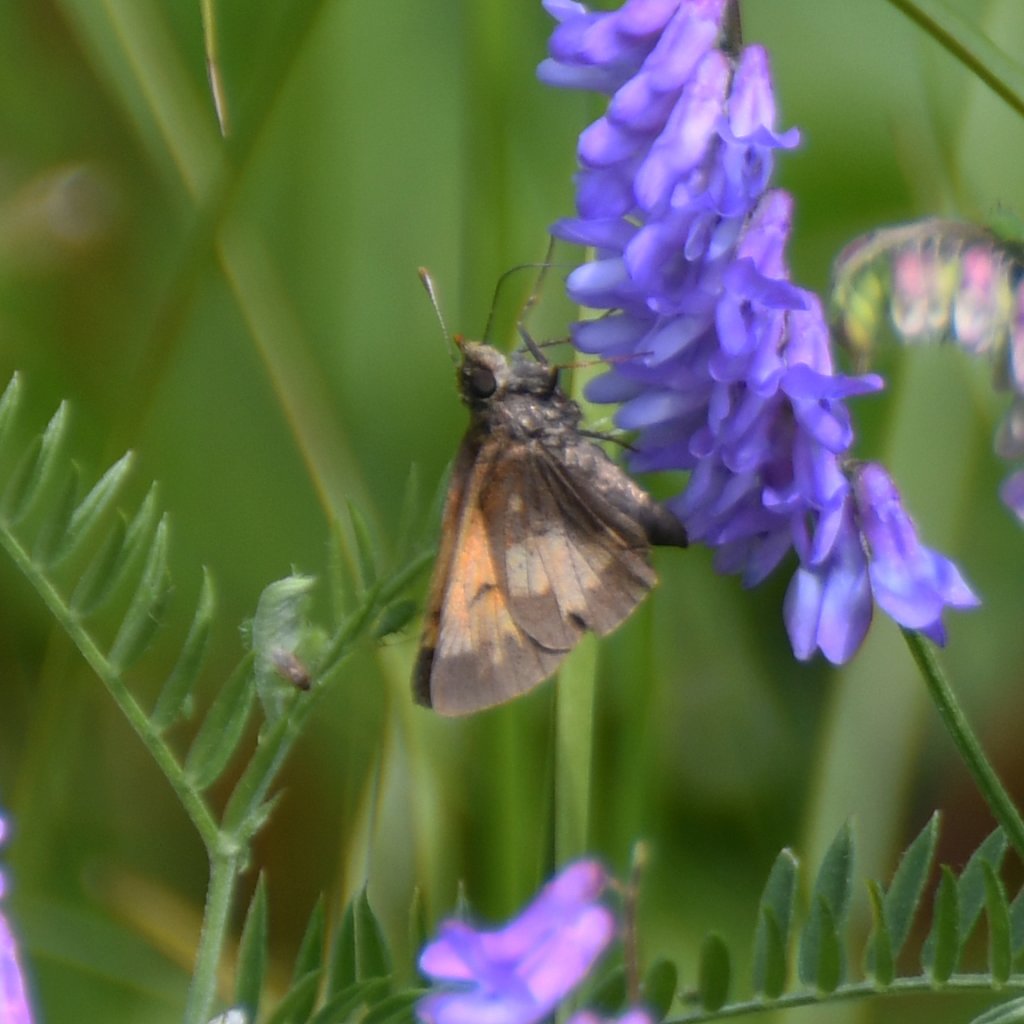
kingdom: Animalia
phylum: Arthropoda
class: Insecta
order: Lepidoptera
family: Hesperiidae
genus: Lon
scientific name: Lon hobomok
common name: Hobomok Skipper
